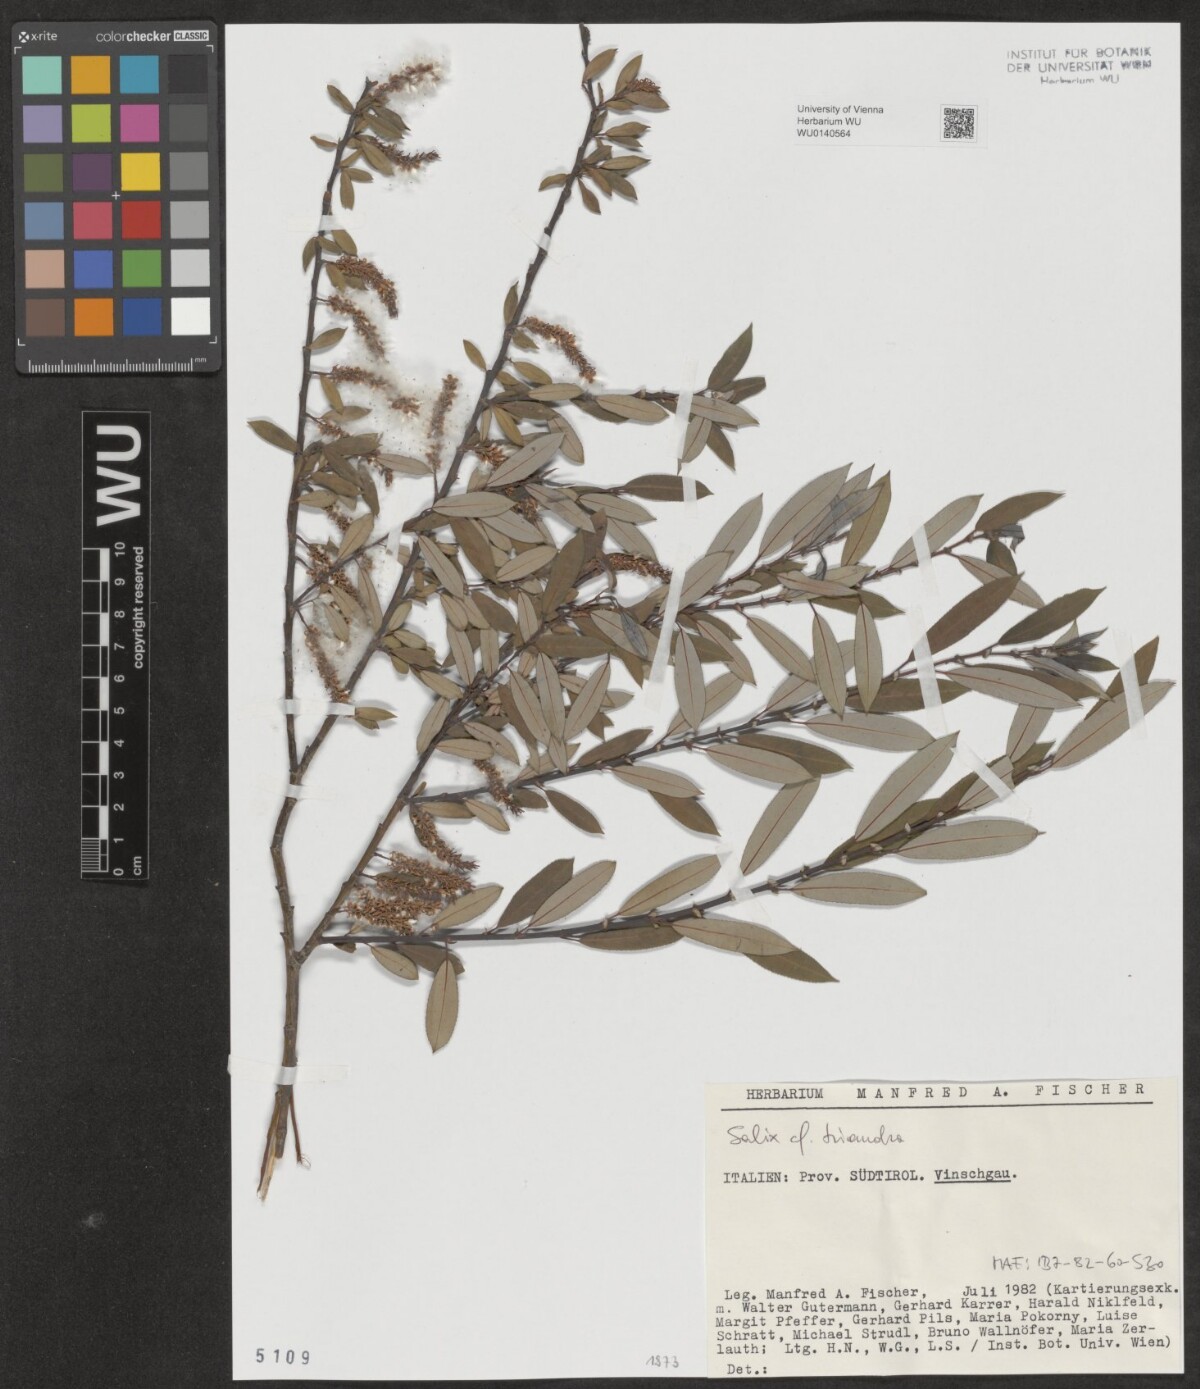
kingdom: Plantae
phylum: Tracheophyta
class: Magnoliopsida
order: Malpighiales
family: Salicaceae
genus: Salix
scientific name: Salix triandra
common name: Almond willow
